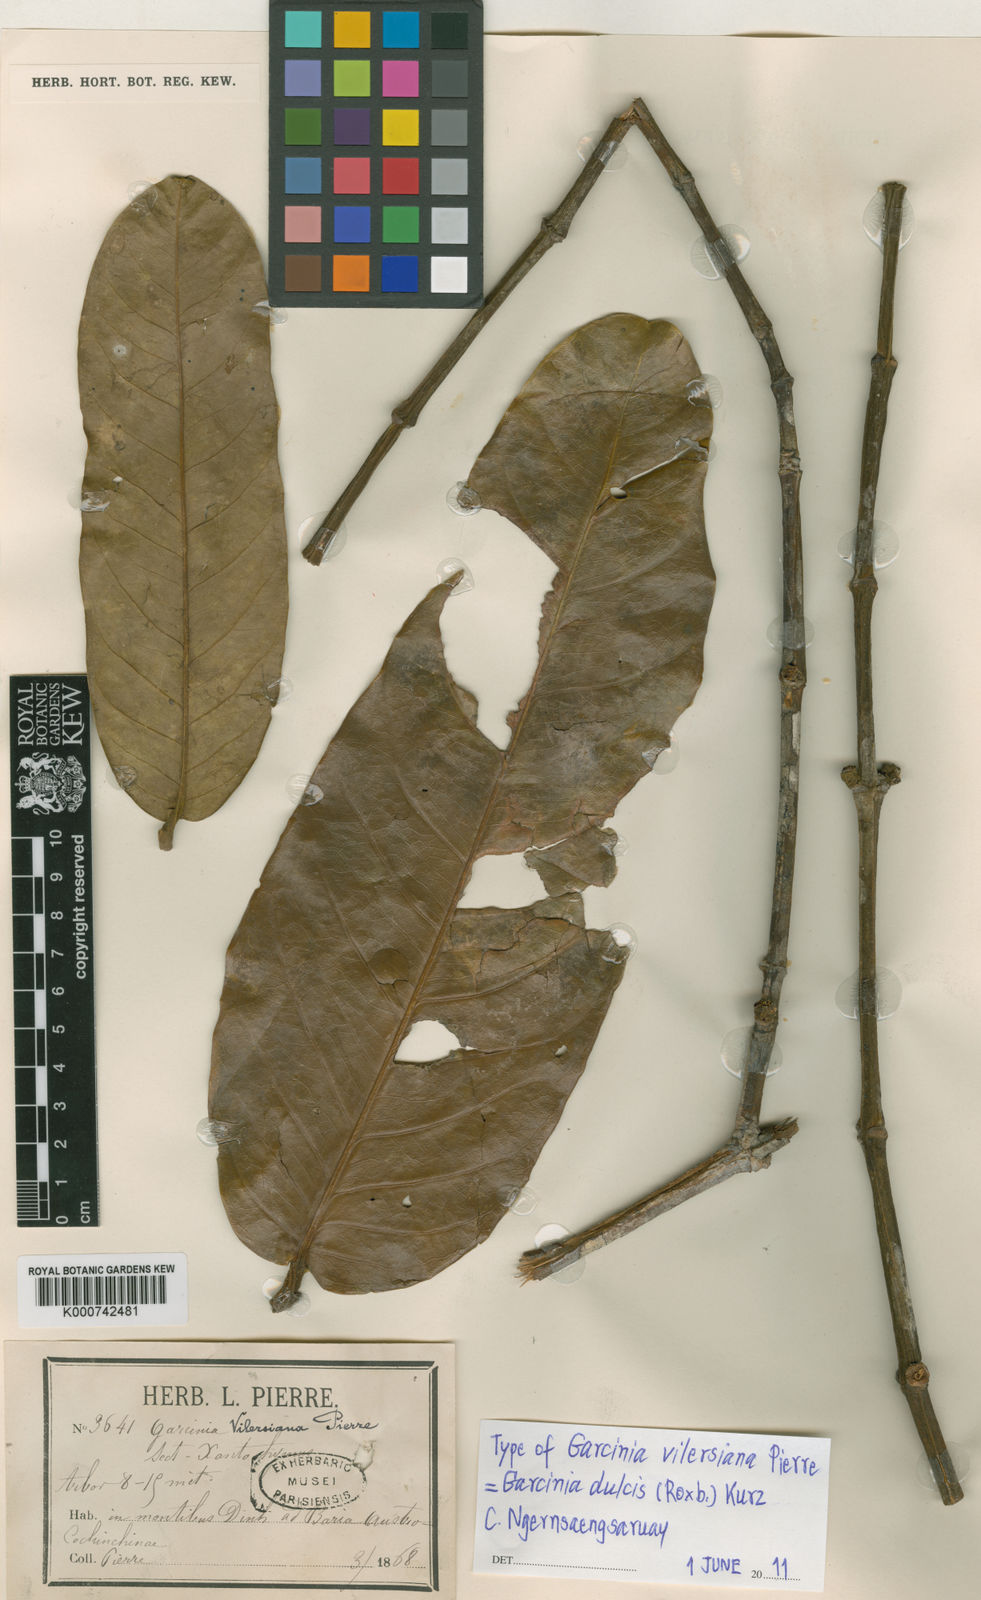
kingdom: Plantae
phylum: Tracheophyta
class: Magnoliopsida
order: Malpighiales
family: Clusiaceae
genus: Garcinia
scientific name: Garcinia vilersiana
